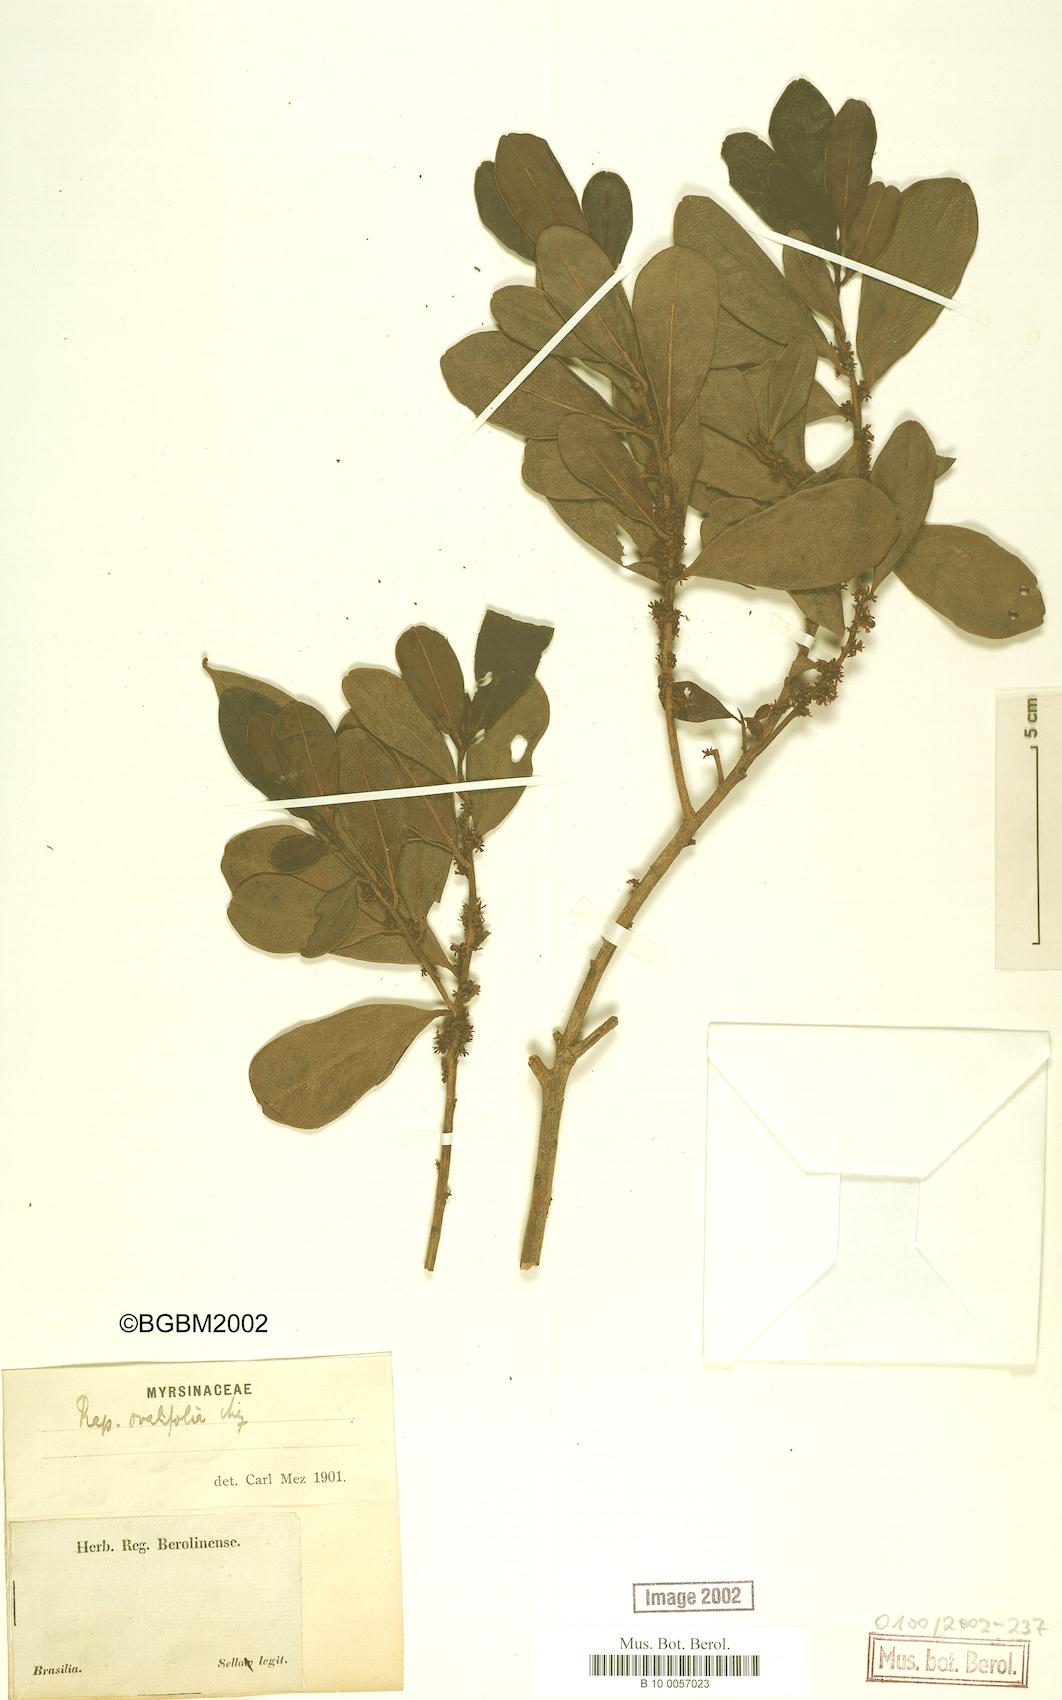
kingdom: Plantae
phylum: Tracheophyta
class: Magnoliopsida
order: Ericales
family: Primulaceae
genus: Myrsine
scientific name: Myrsine miquelii
